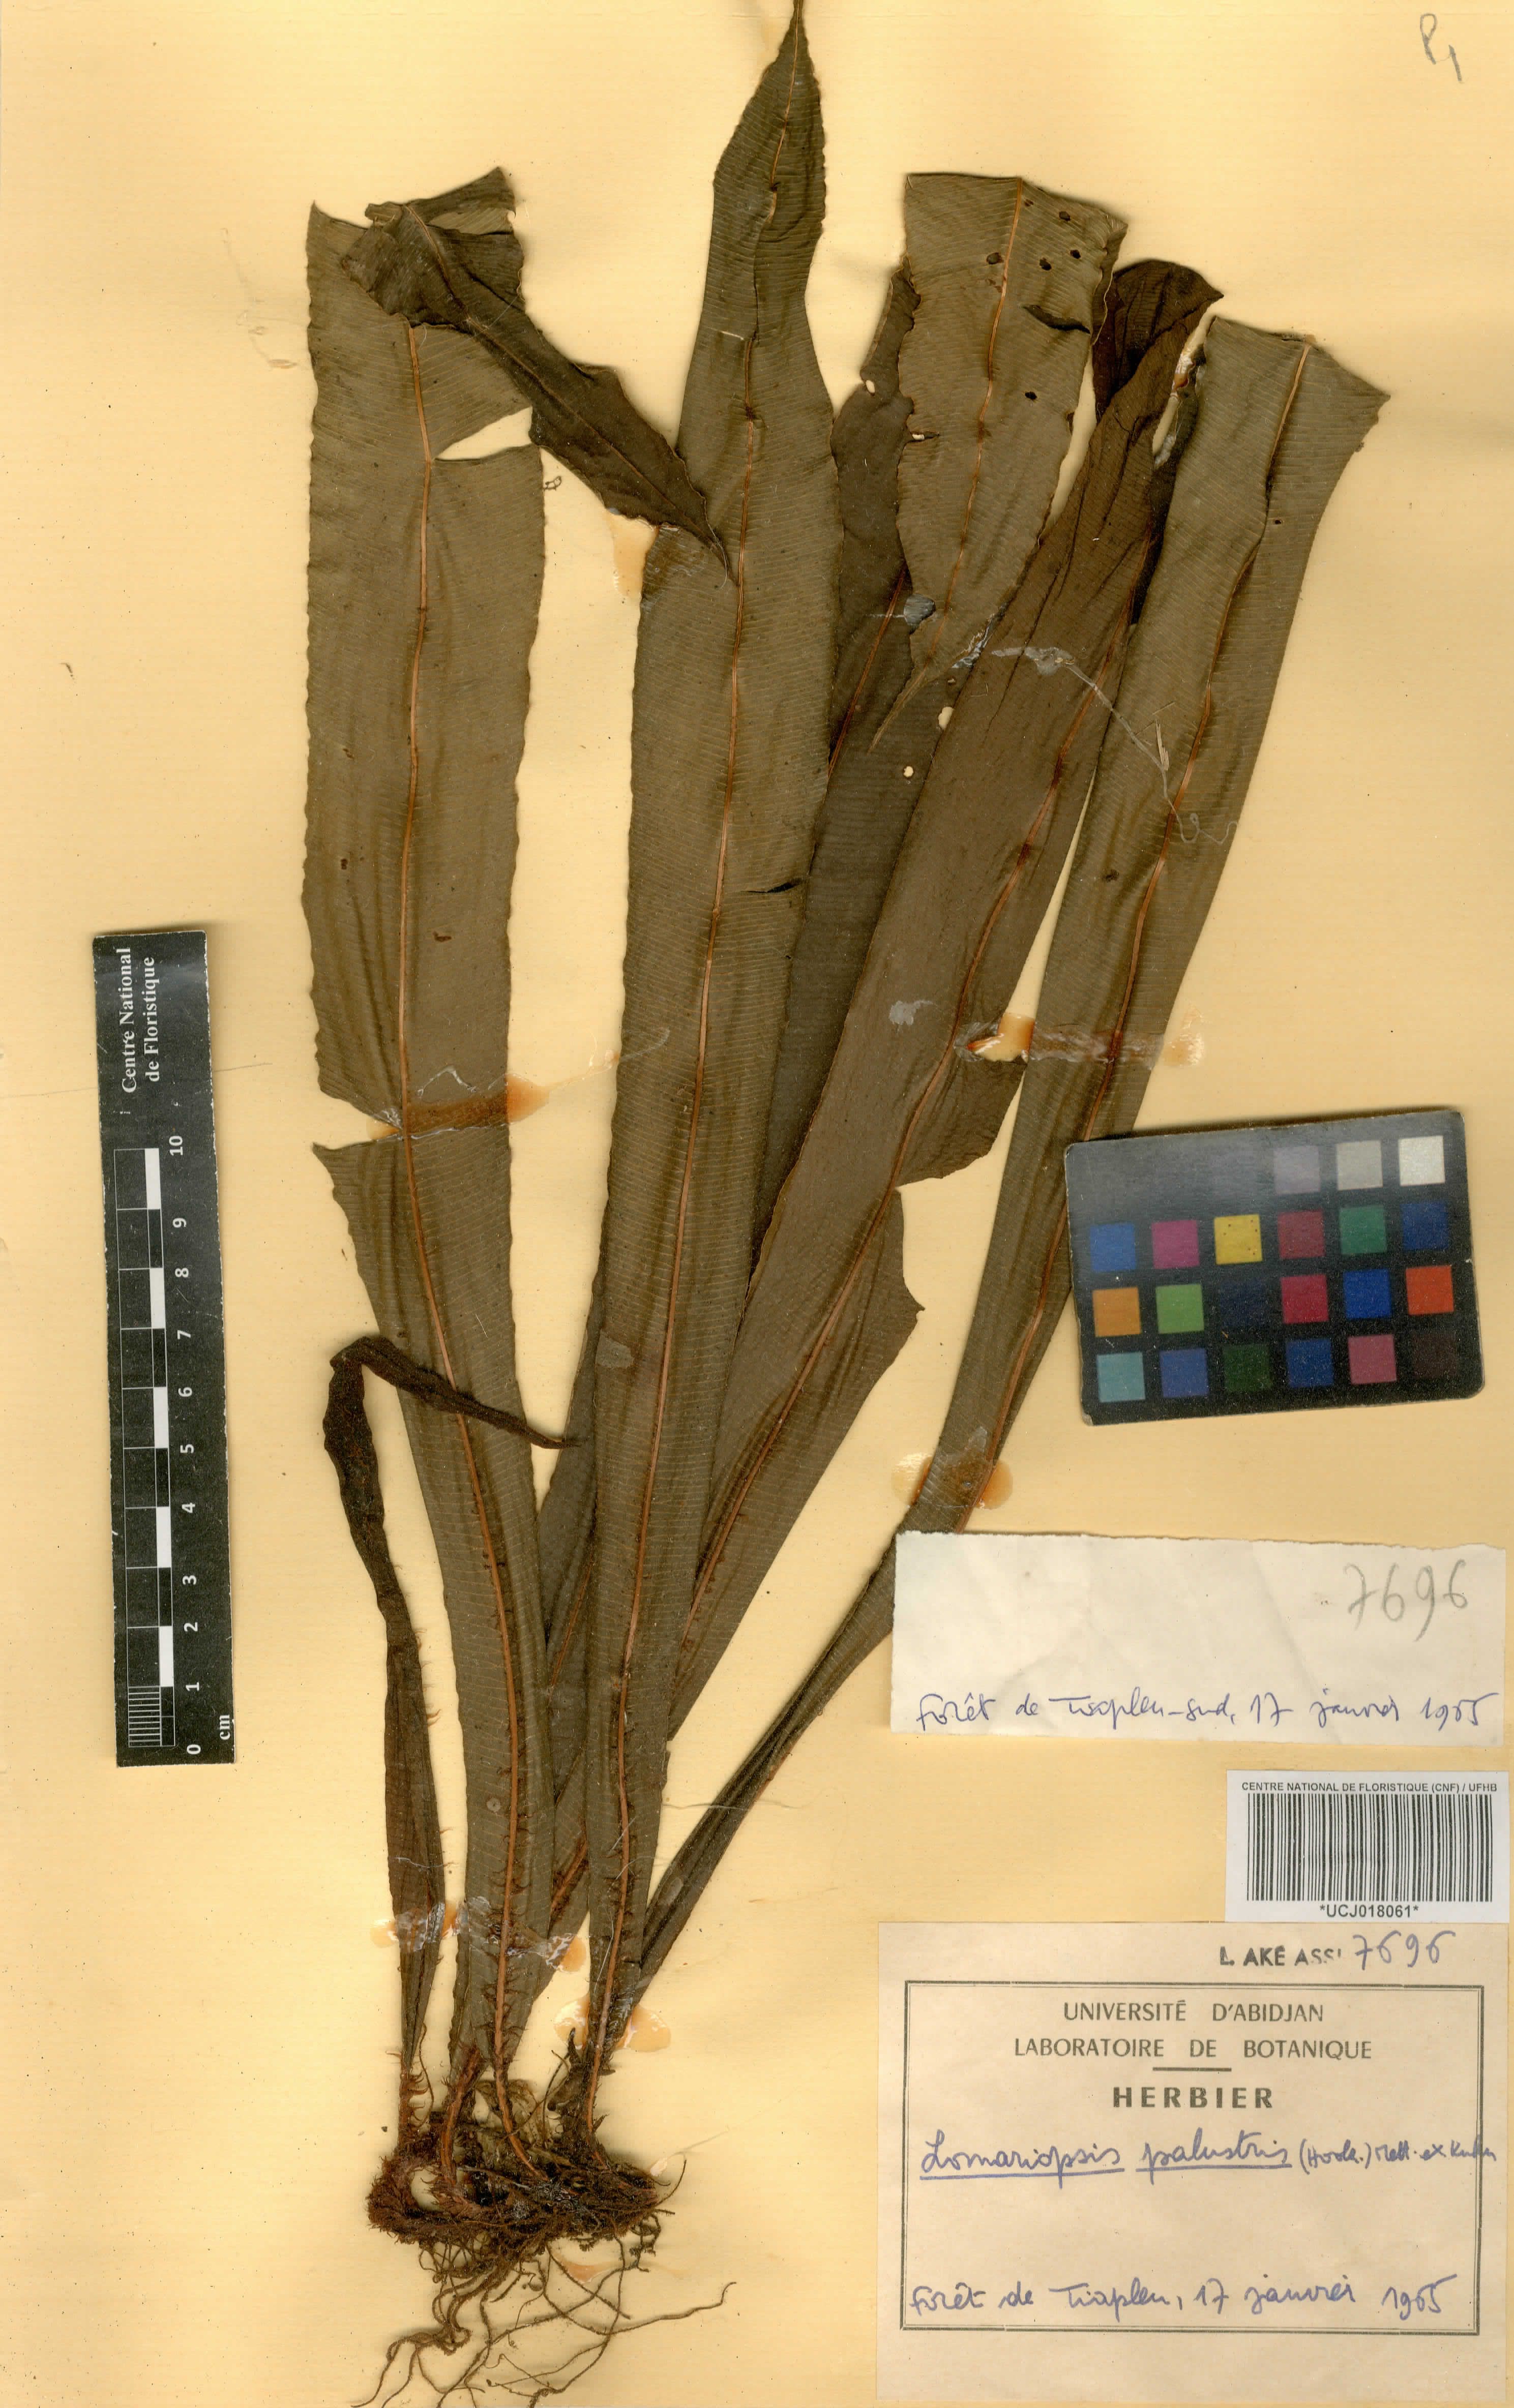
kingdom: Plantae
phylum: Tracheophyta
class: Polypodiopsida
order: Polypodiales
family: Blechnaceae
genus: Stenochlaena
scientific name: Stenochlaena palustris
